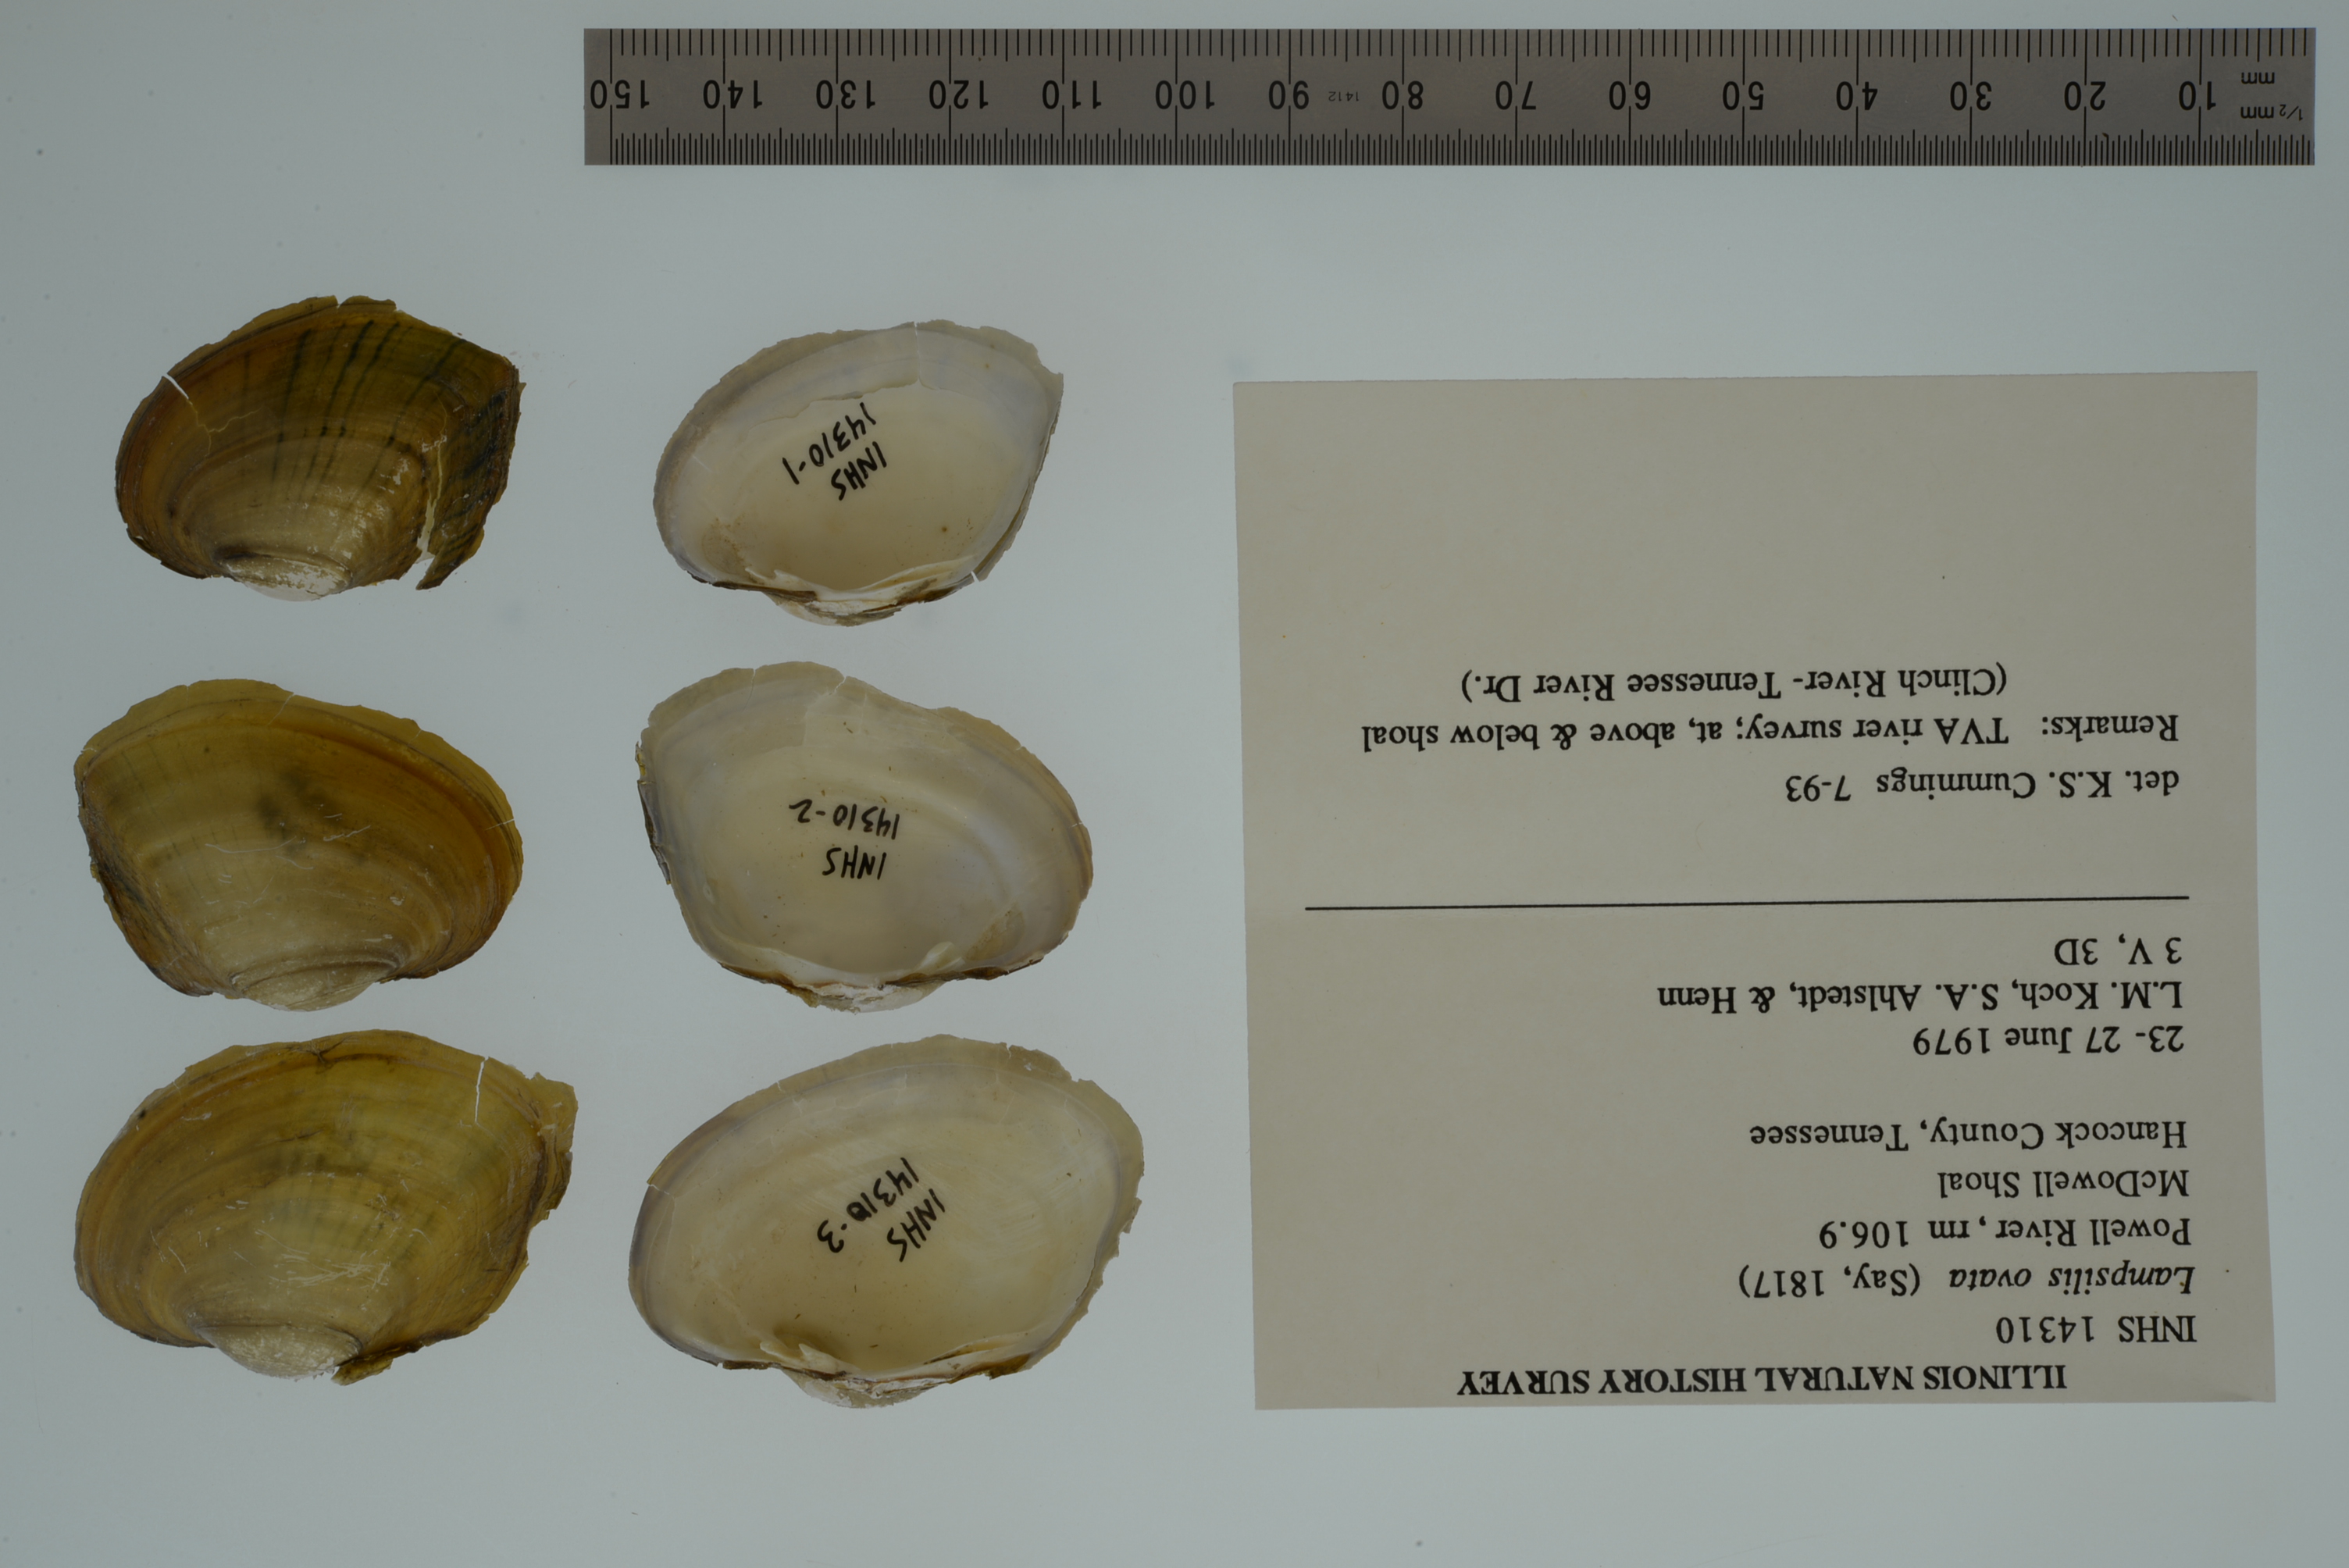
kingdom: Animalia
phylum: Mollusca
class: Bivalvia
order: Unionida
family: Unionidae
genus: Lampsilis
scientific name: Lampsilis ovata
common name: Pocketbook
